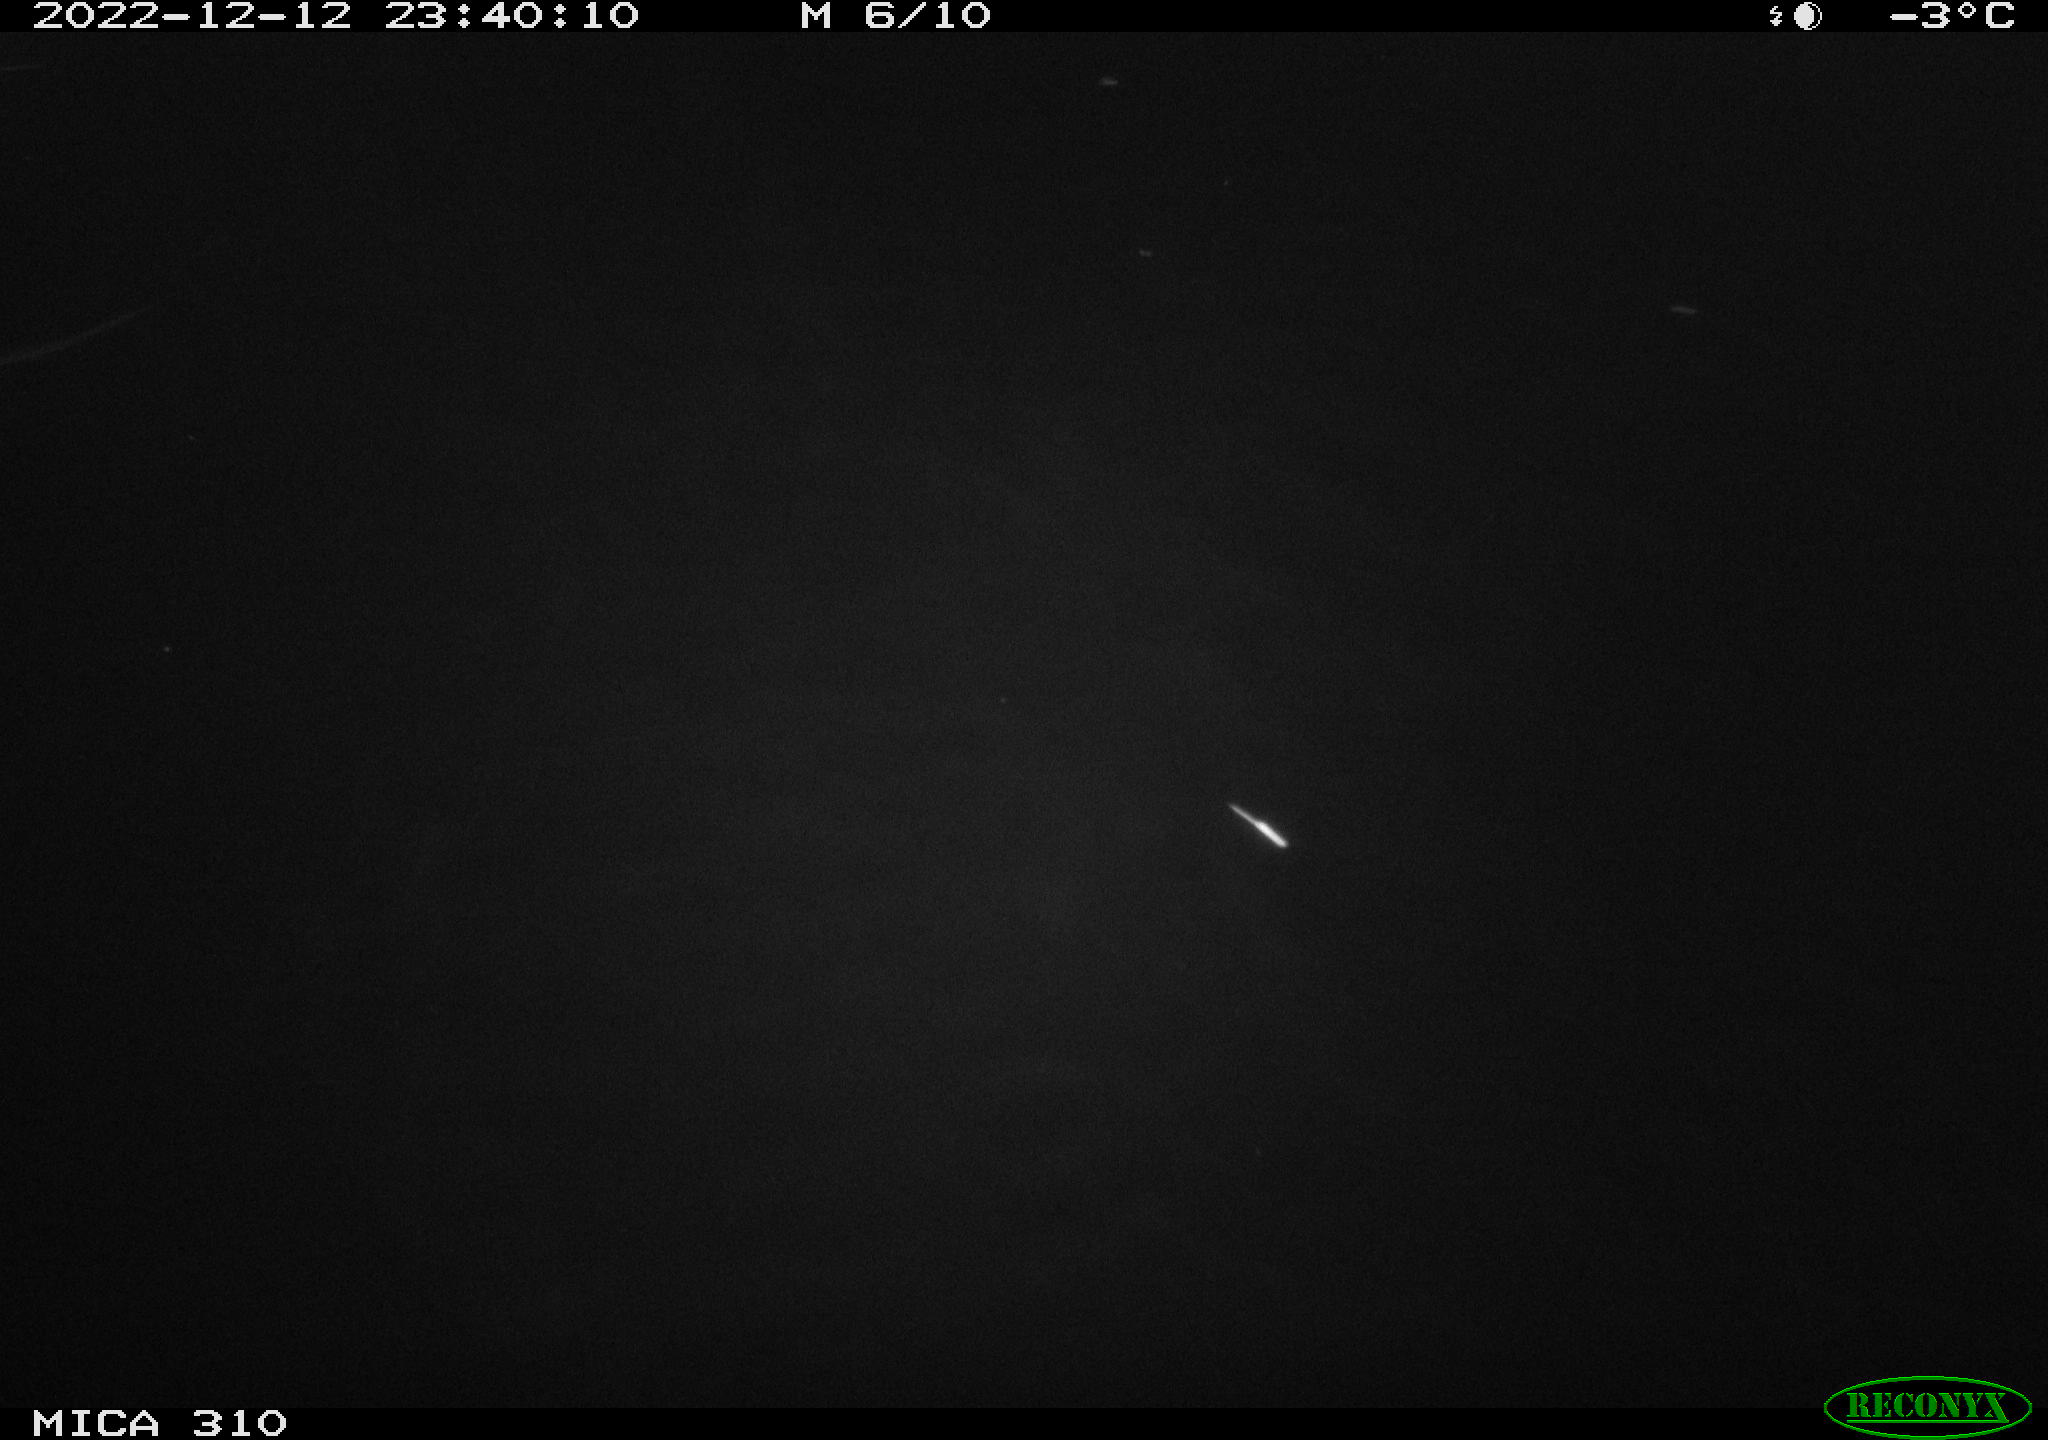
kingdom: Animalia
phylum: Chordata
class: Aves
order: Anseriformes
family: Anatidae
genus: Anas
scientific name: Anas
